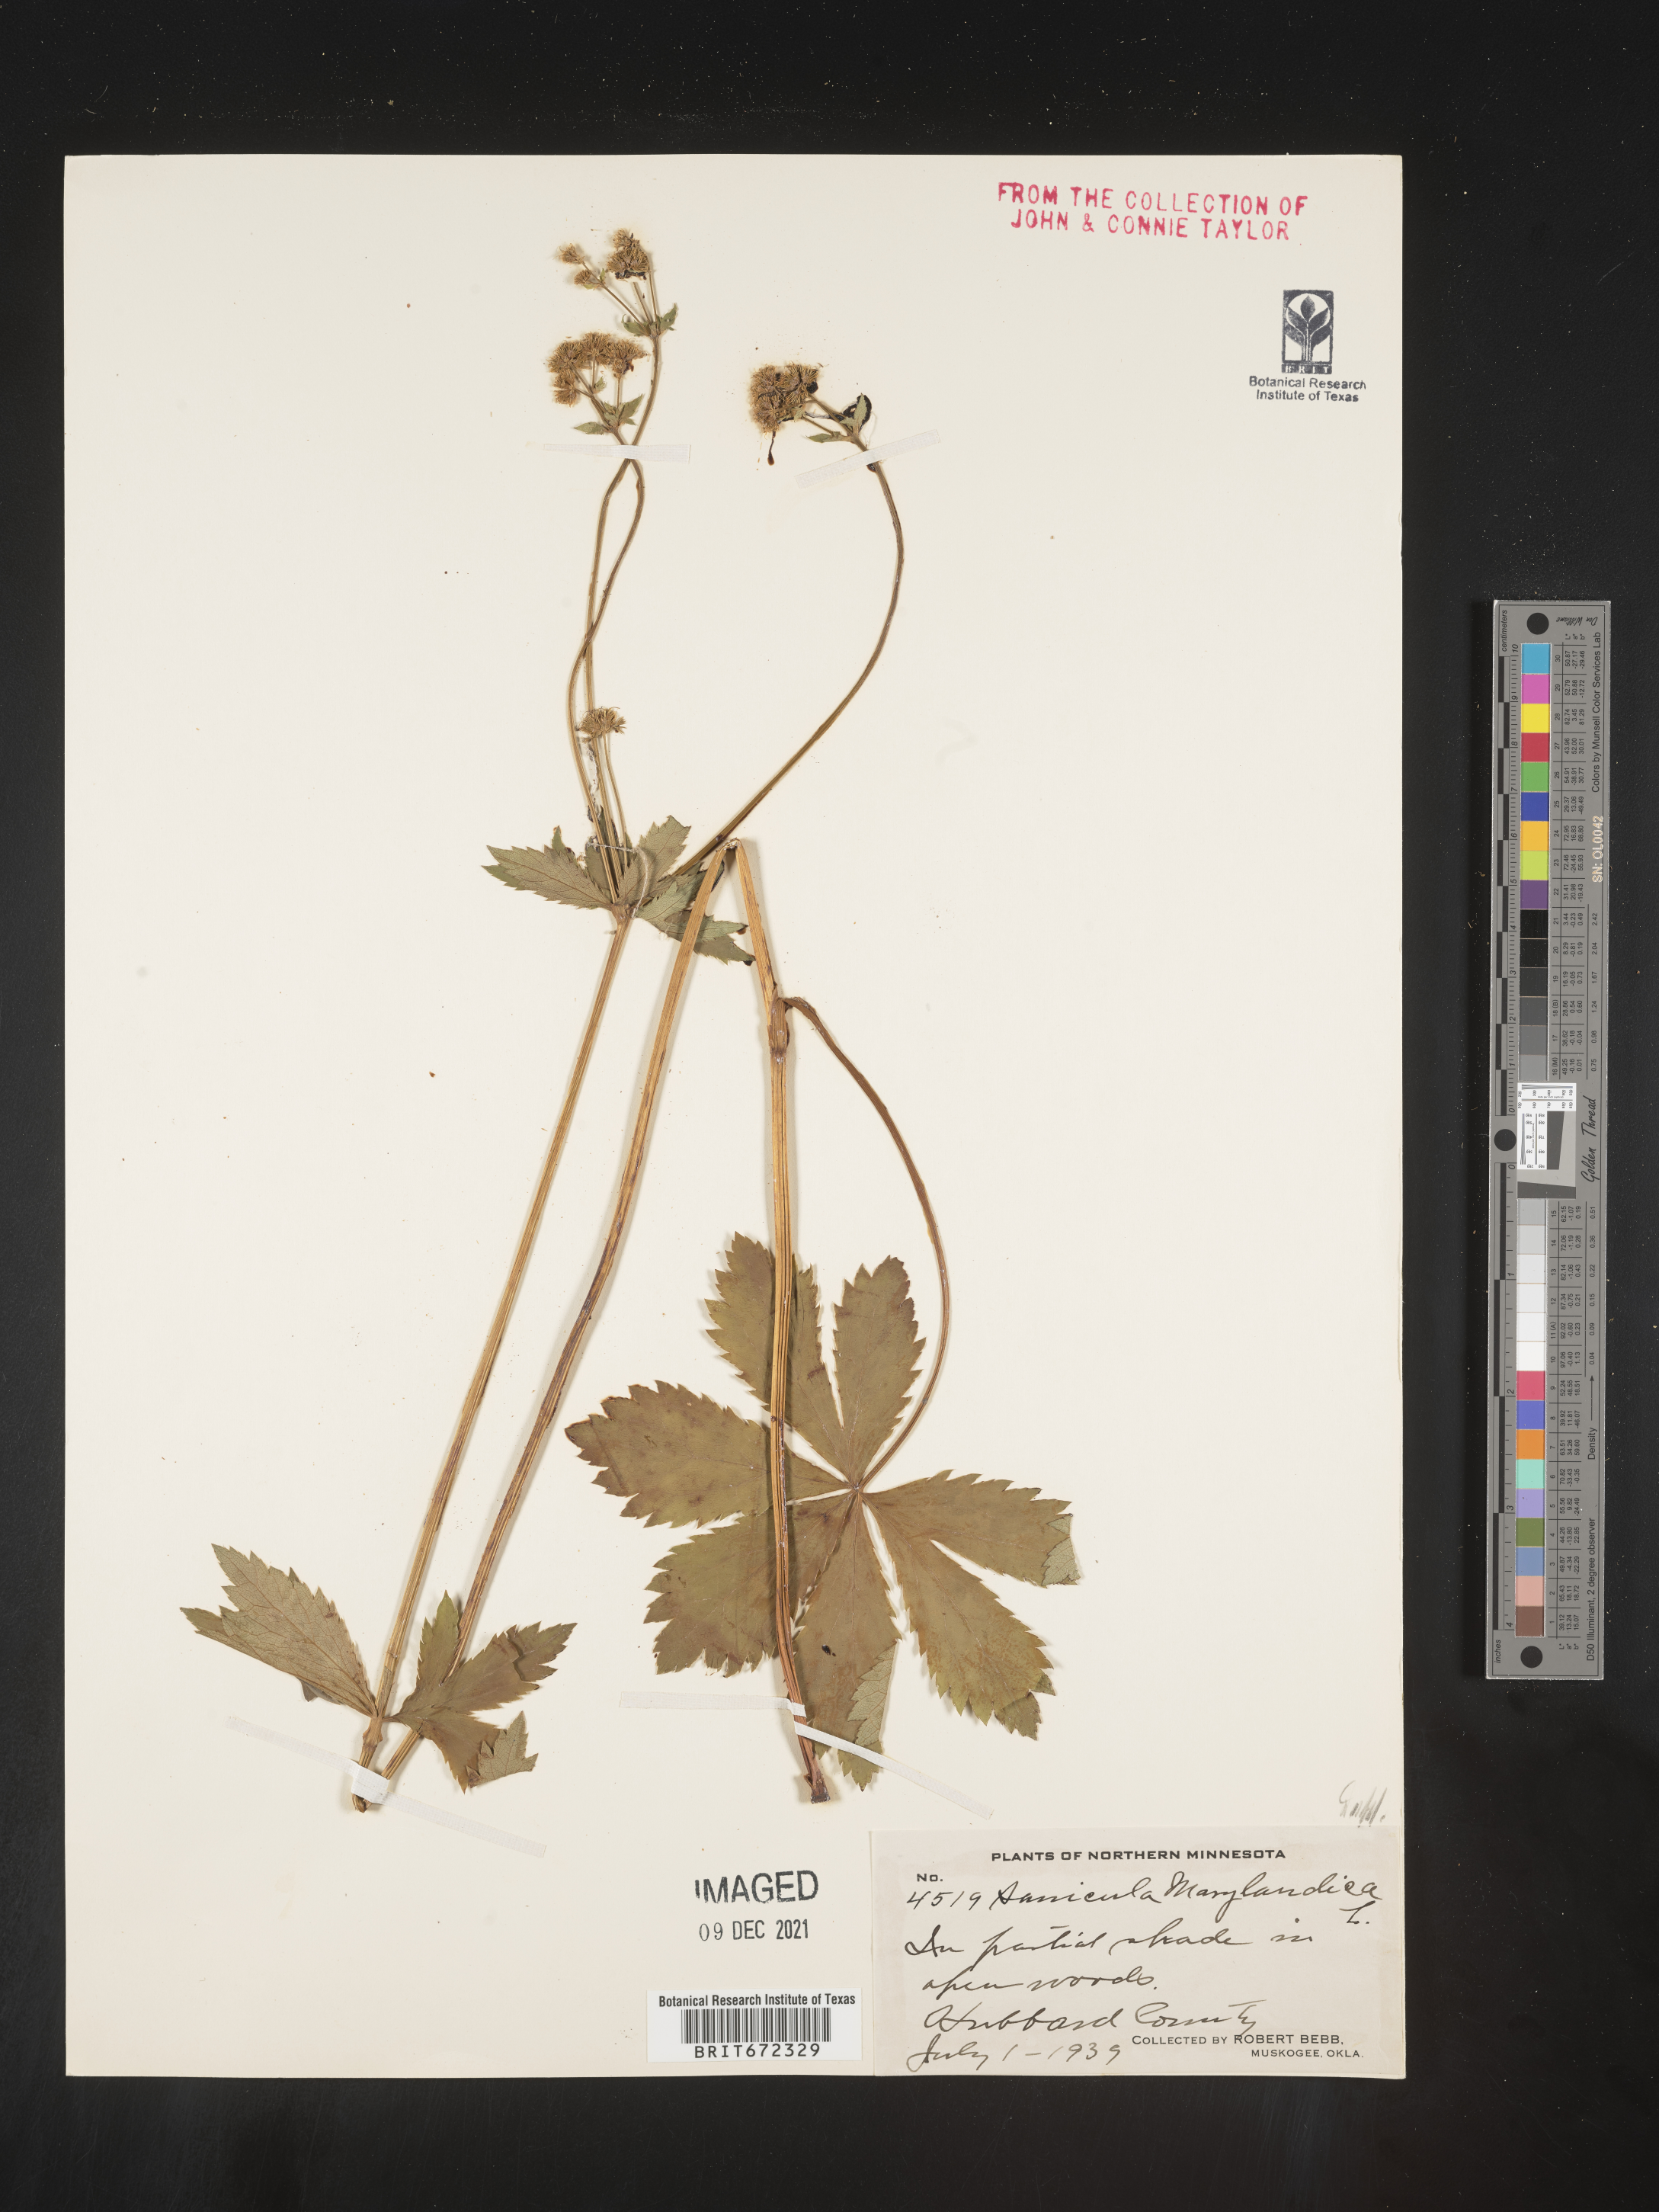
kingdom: Plantae
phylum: Tracheophyta
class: Magnoliopsida
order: Apiales
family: Apiaceae
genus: Sanicula
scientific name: Sanicula marilandica
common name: Black snakeroot
